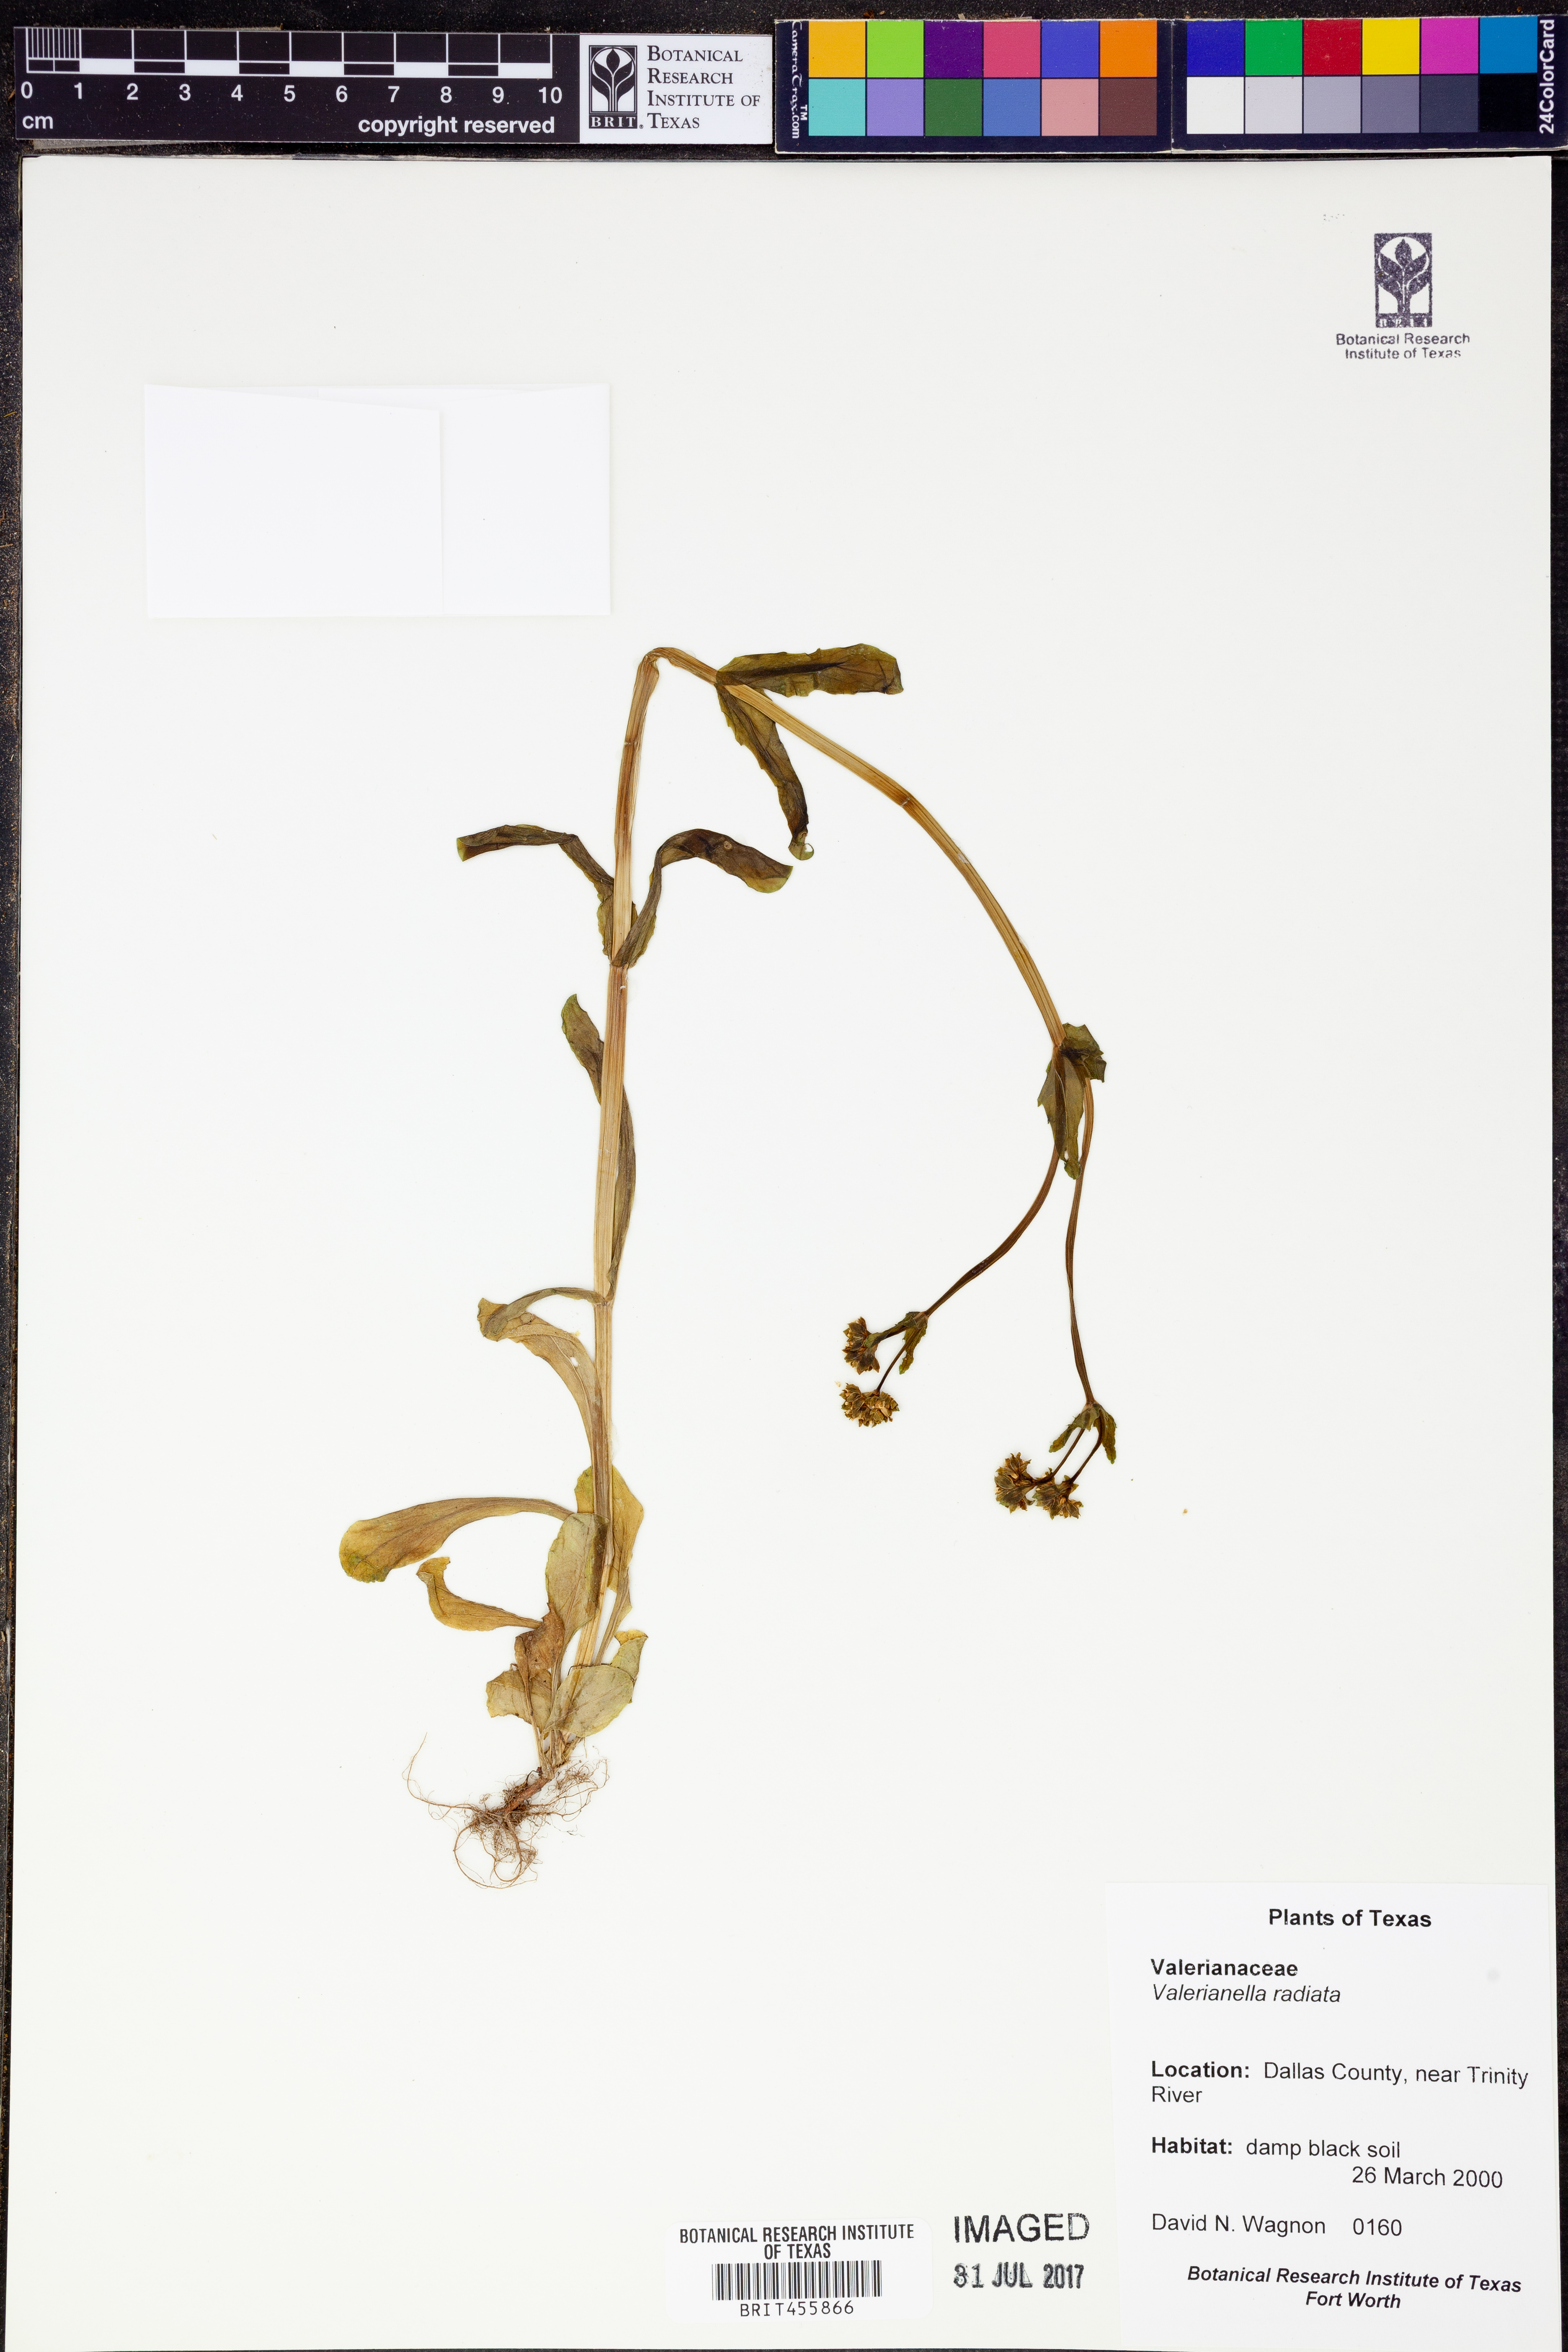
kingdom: Plantae
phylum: Tracheophyta
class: Magnoliopsida
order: Dipsacales
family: Caprifoliaceae
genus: Valerianella
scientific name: Valerianella radiata
